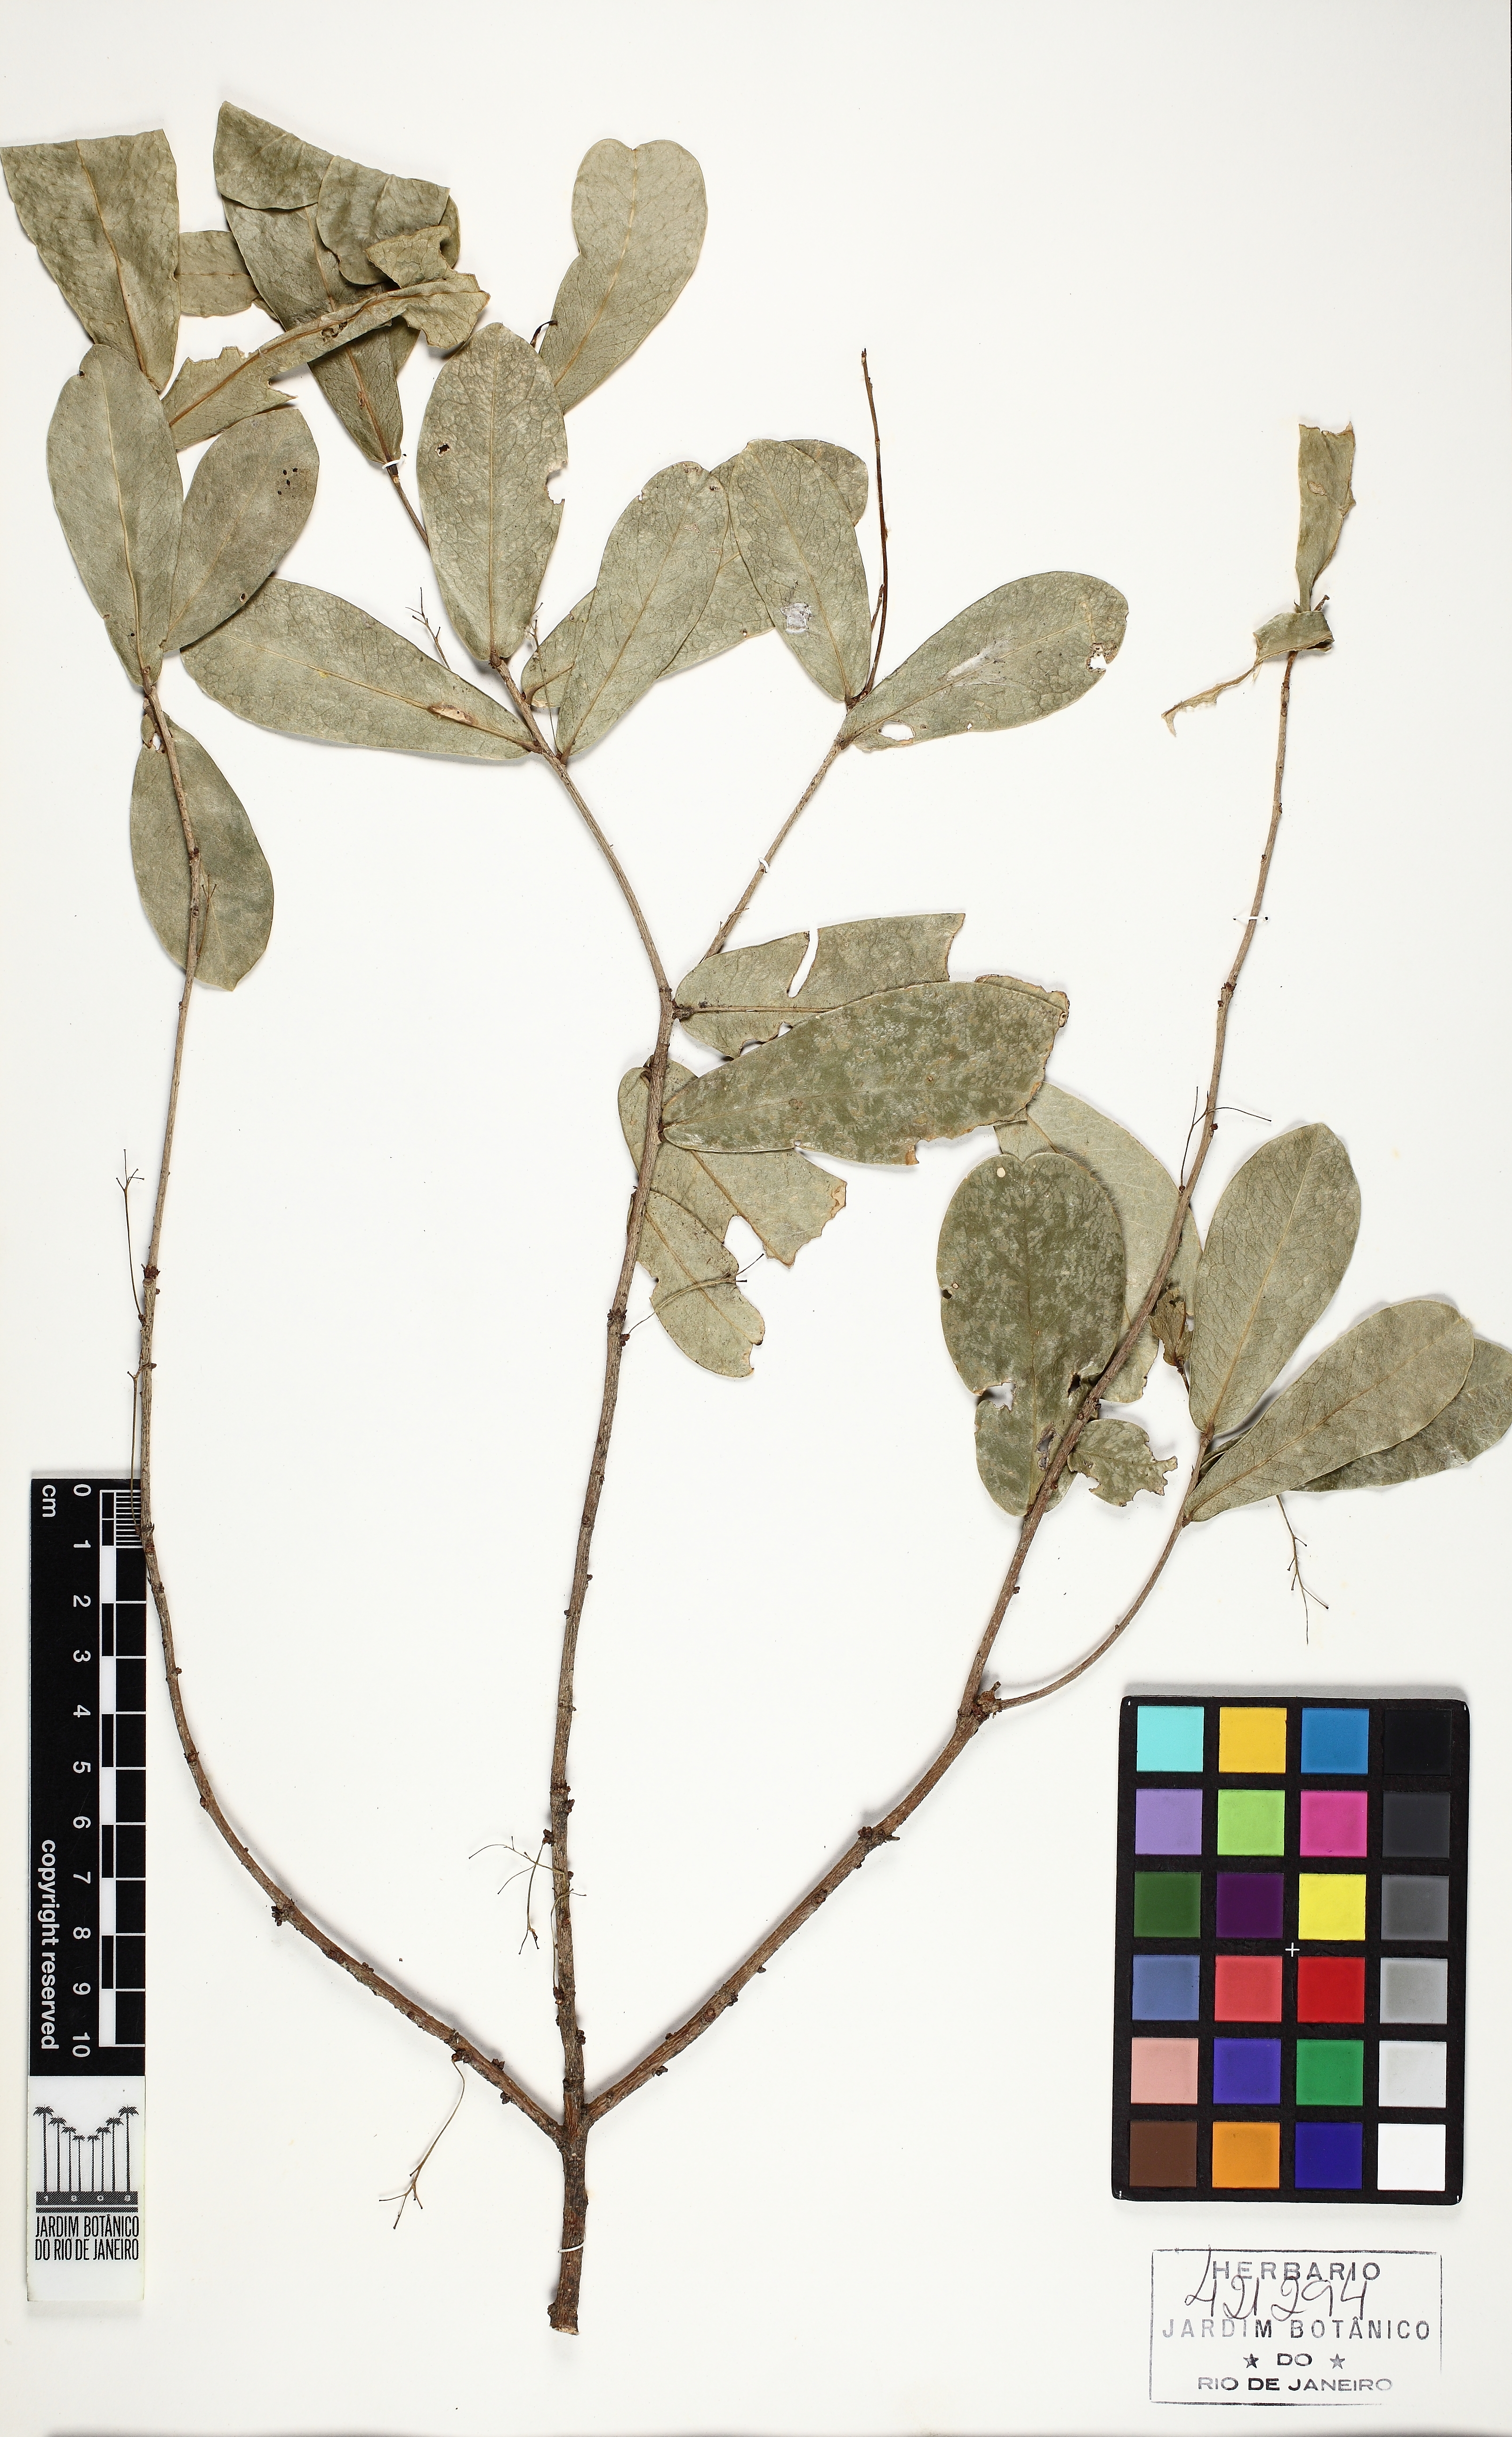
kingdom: Plantae
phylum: Tracheophyta
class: Magnoliopsida
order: Malvales
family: Thymelaeaceae
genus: Daphnopsis
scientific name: Daphnopsis
